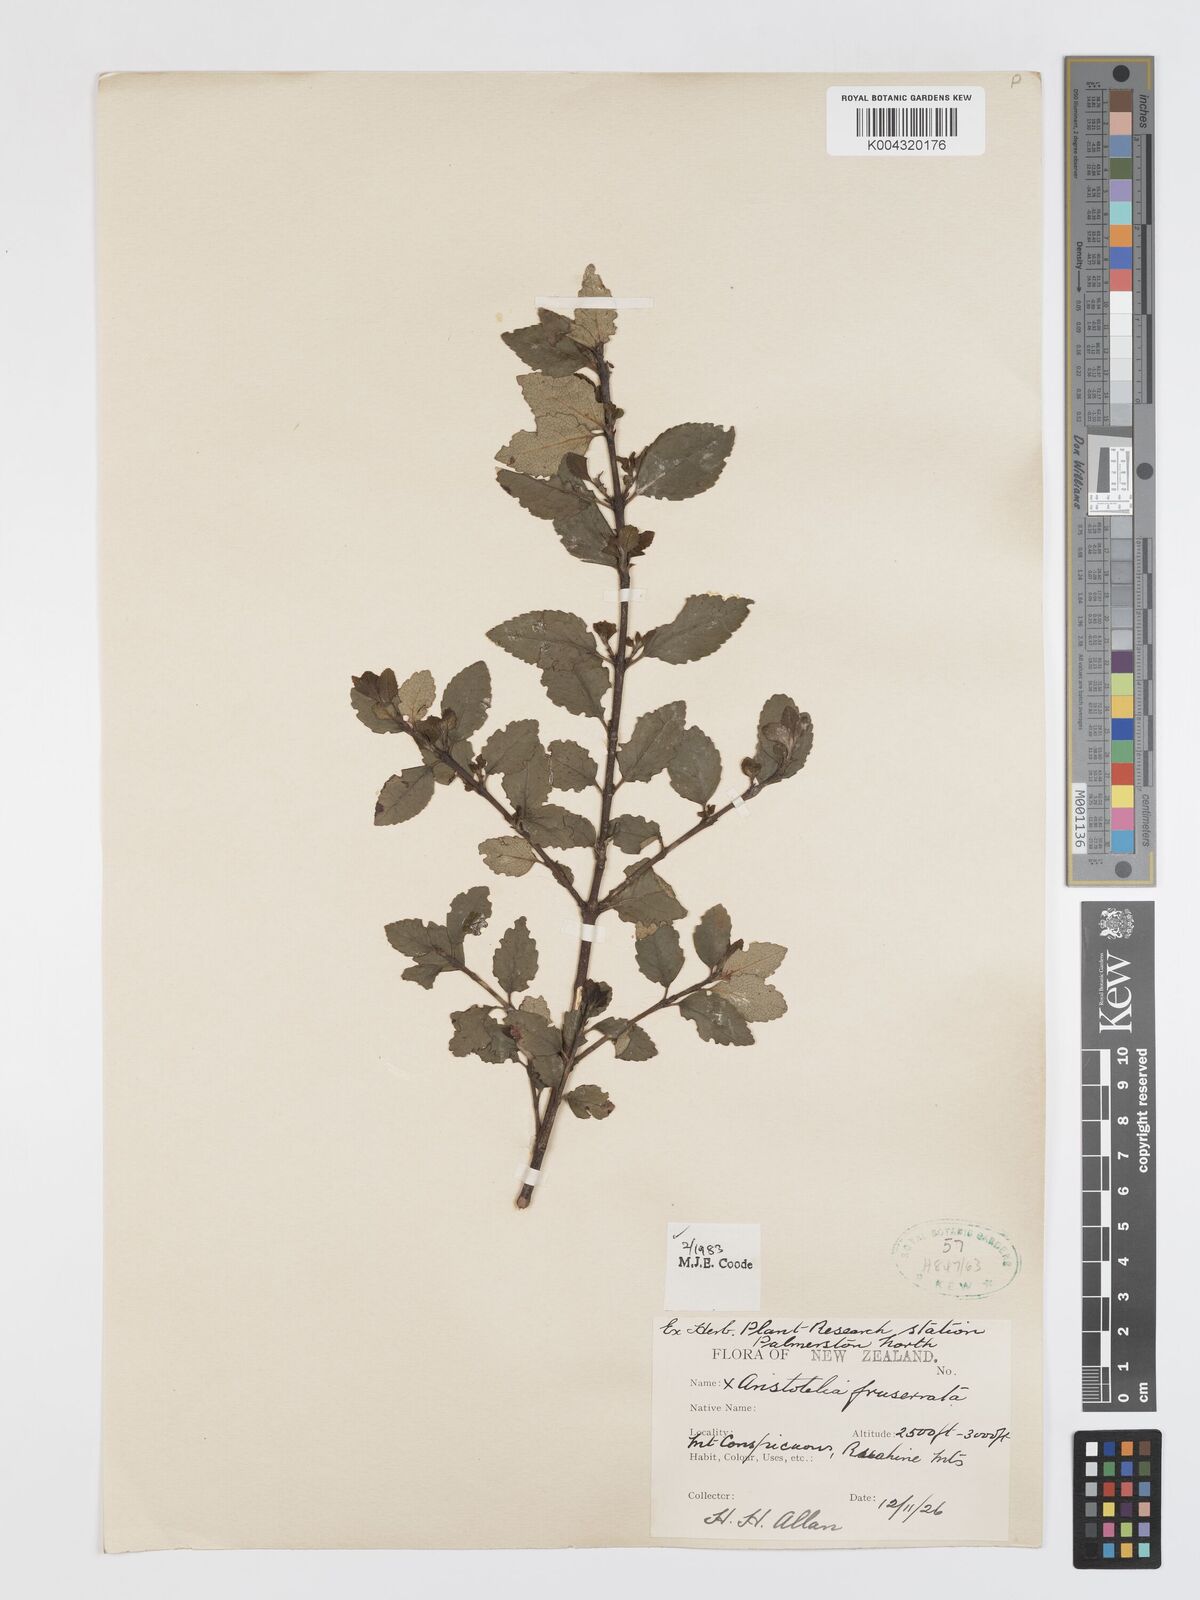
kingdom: Plantae
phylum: Tracheophyta
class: Magnoliopsida
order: Oxalidales
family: Elaeocarpaceae
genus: Aristotelia
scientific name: Aristotelia fruticosa
